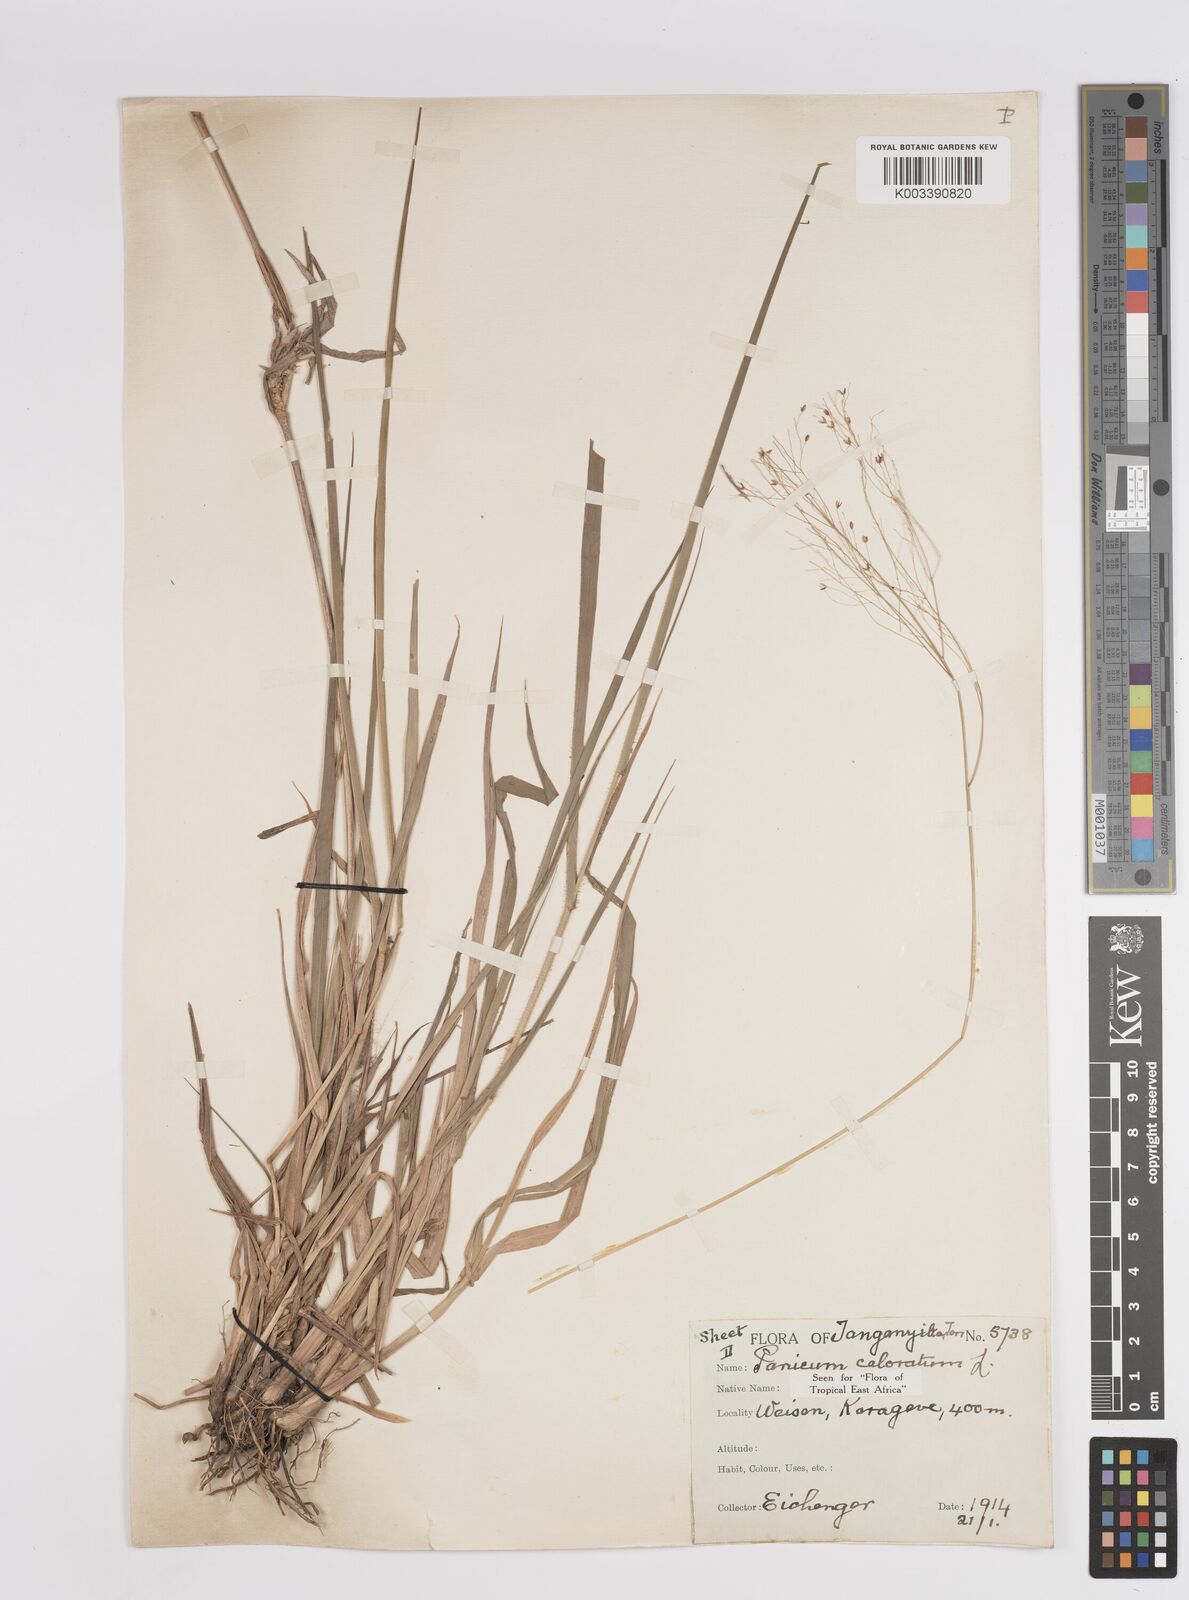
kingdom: Plantae
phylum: Tracheophyta
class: Liliopsida
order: Poales
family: Poaceae
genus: Panicum
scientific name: Panicum coloratum
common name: Kleingrass
